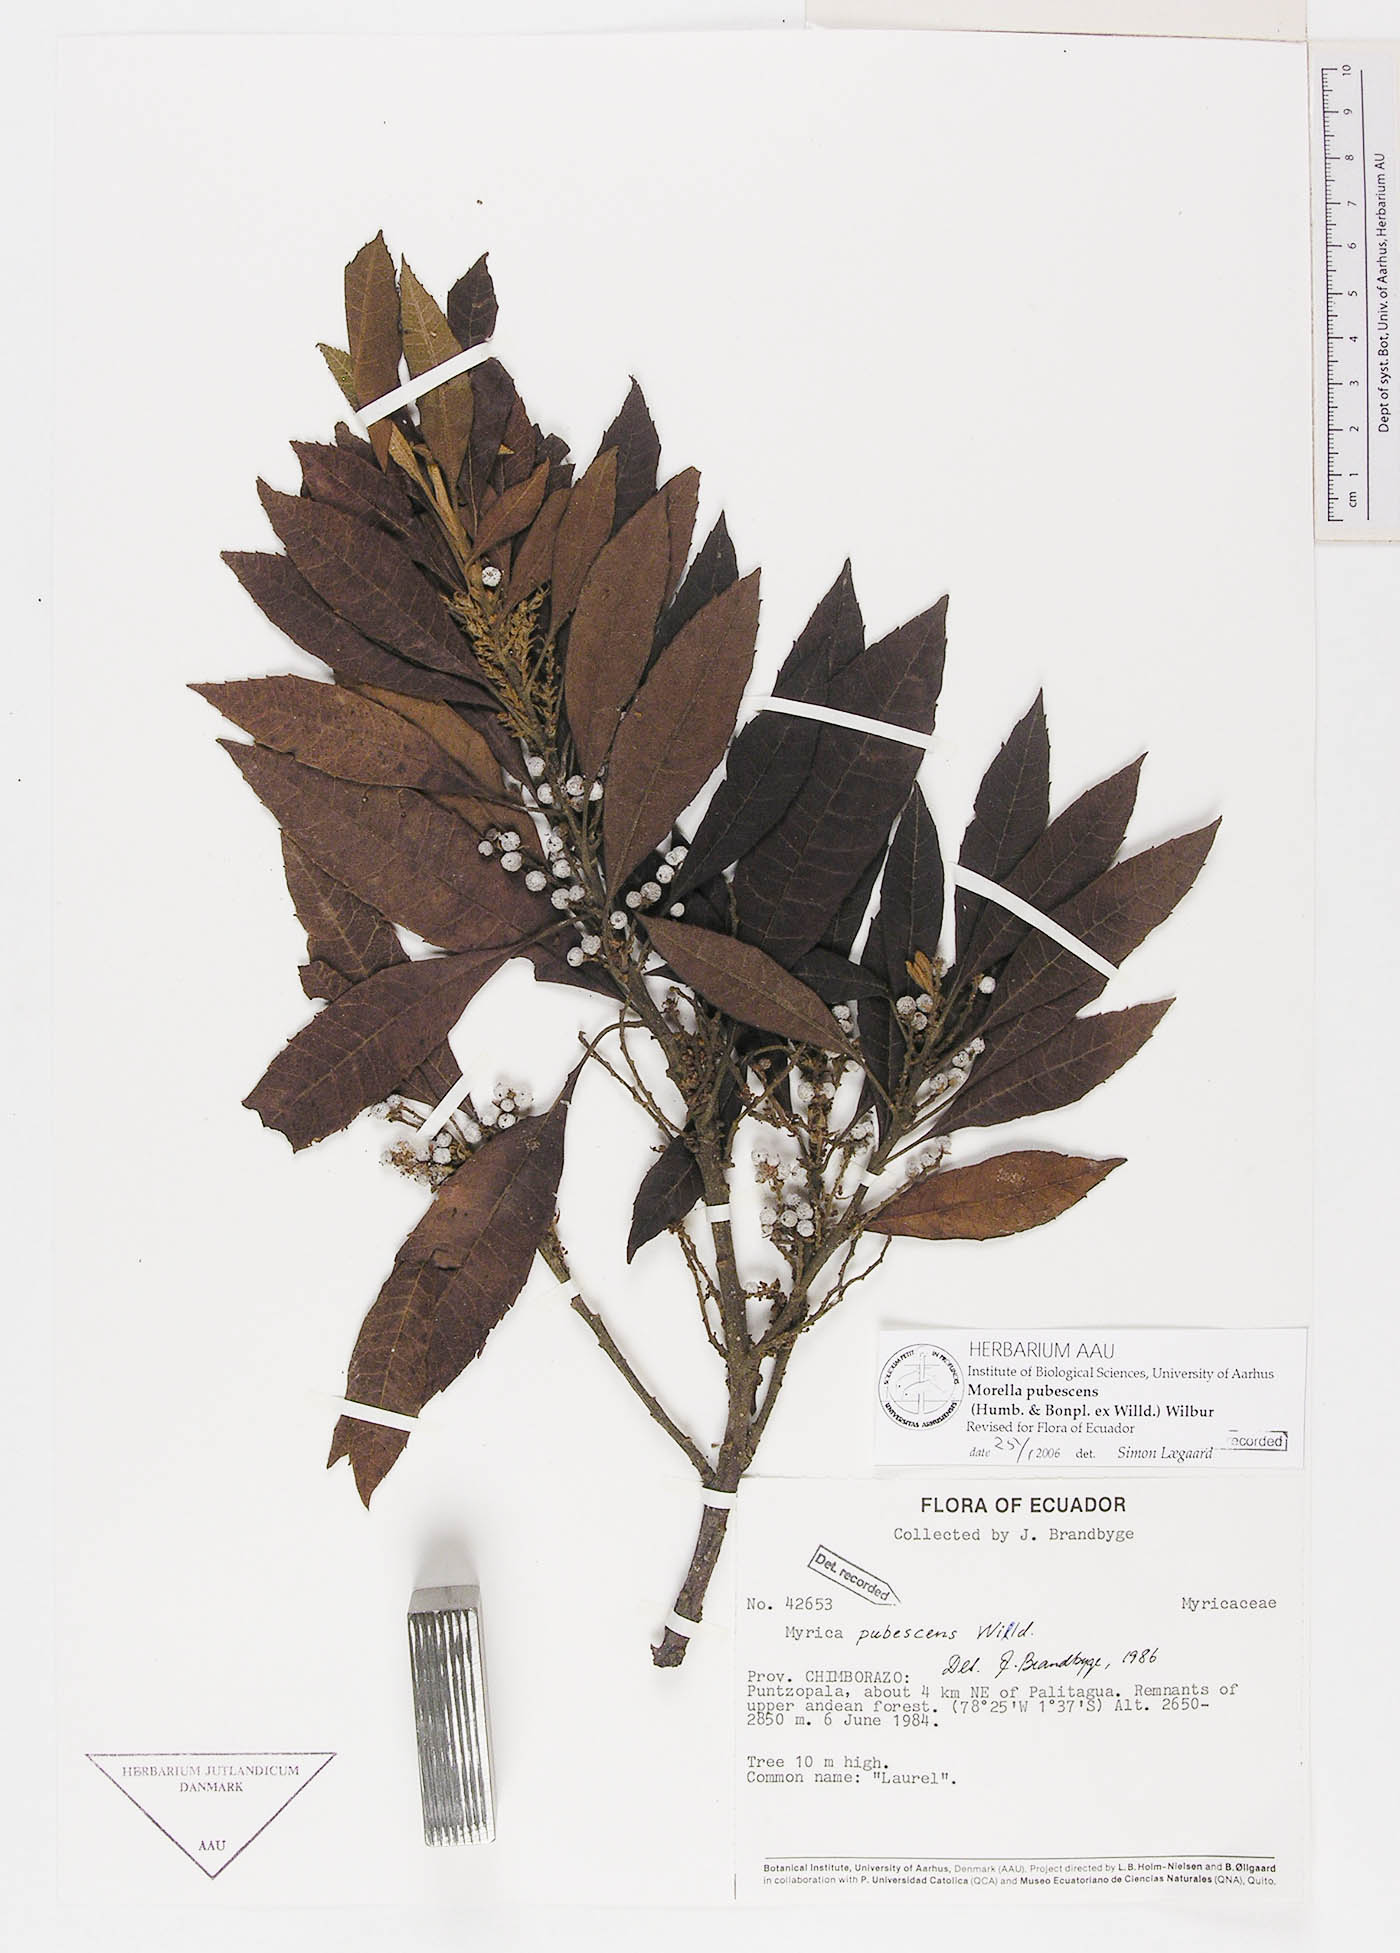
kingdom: Plantae
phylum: Tracheophyta
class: Magnoliopsida
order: Fagales
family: Myricaceae
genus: Morella
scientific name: Morella pubescens
